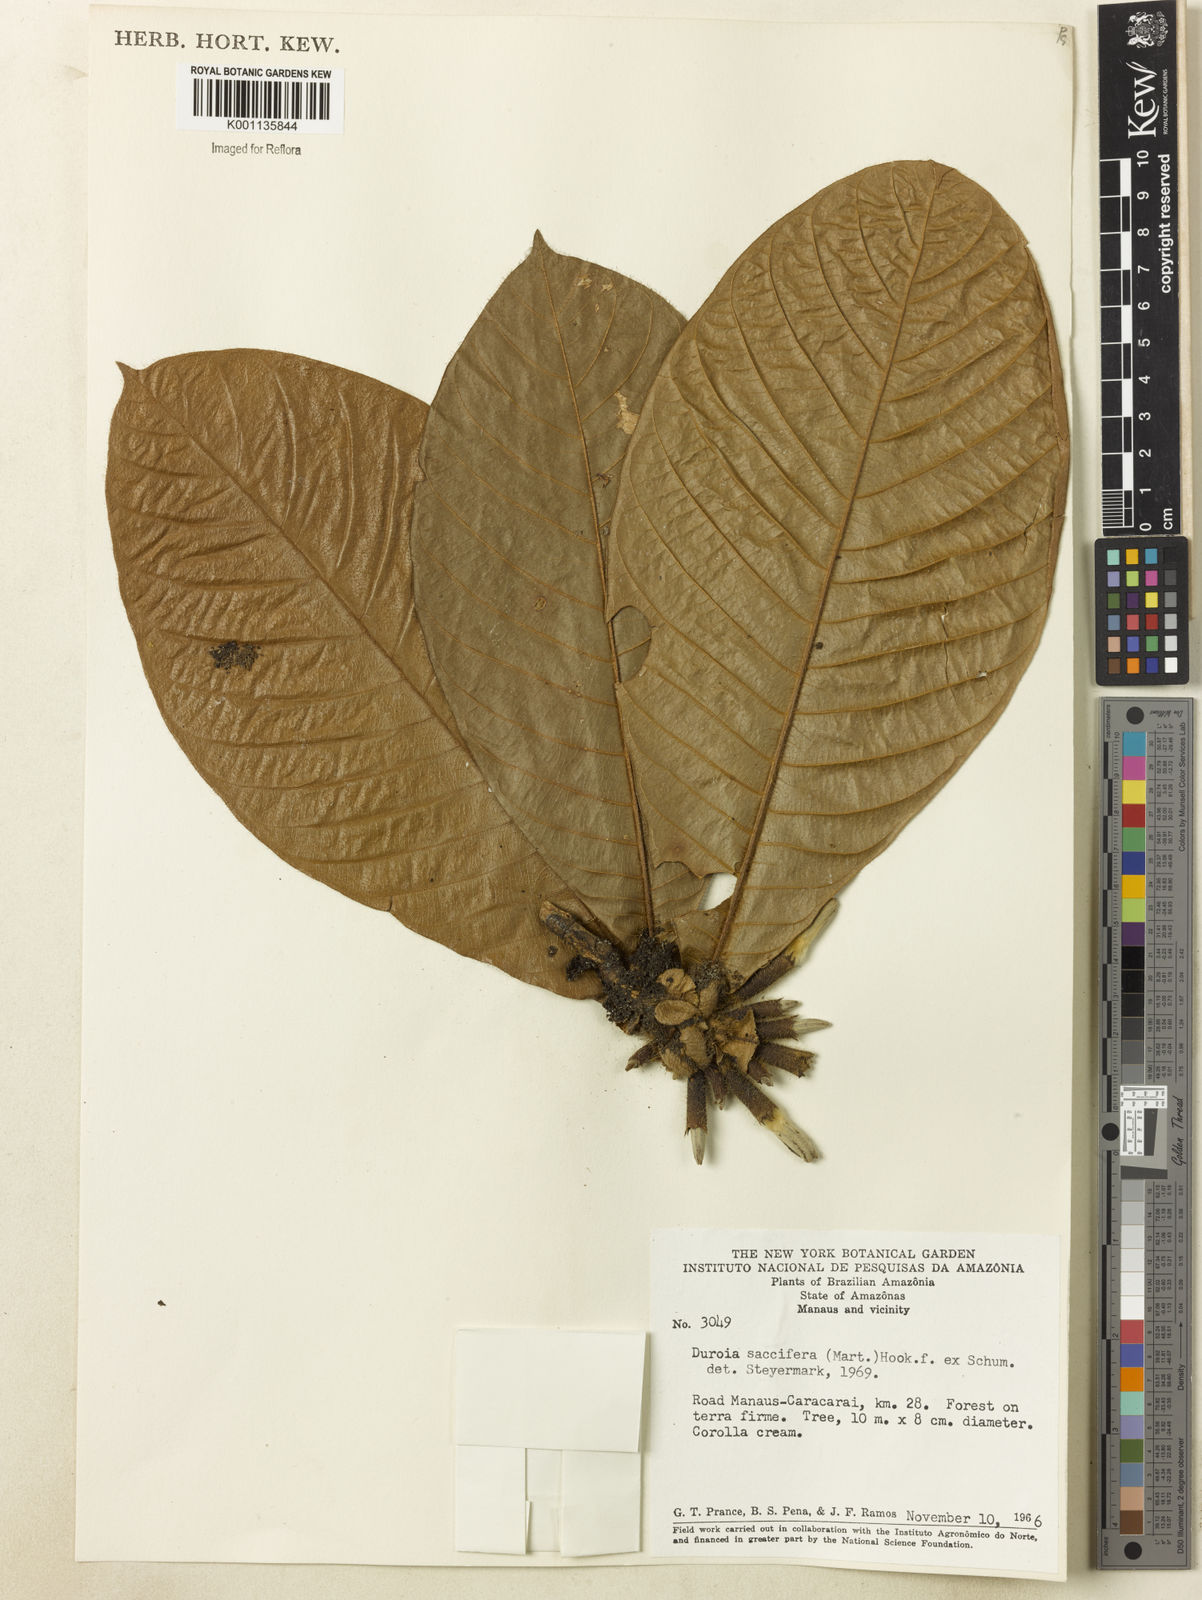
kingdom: Plantae
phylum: Tracheophyta
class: Magnoliopsida
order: Gentianales
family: Rubiaceae
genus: Duroia
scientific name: Duroia saccifera
